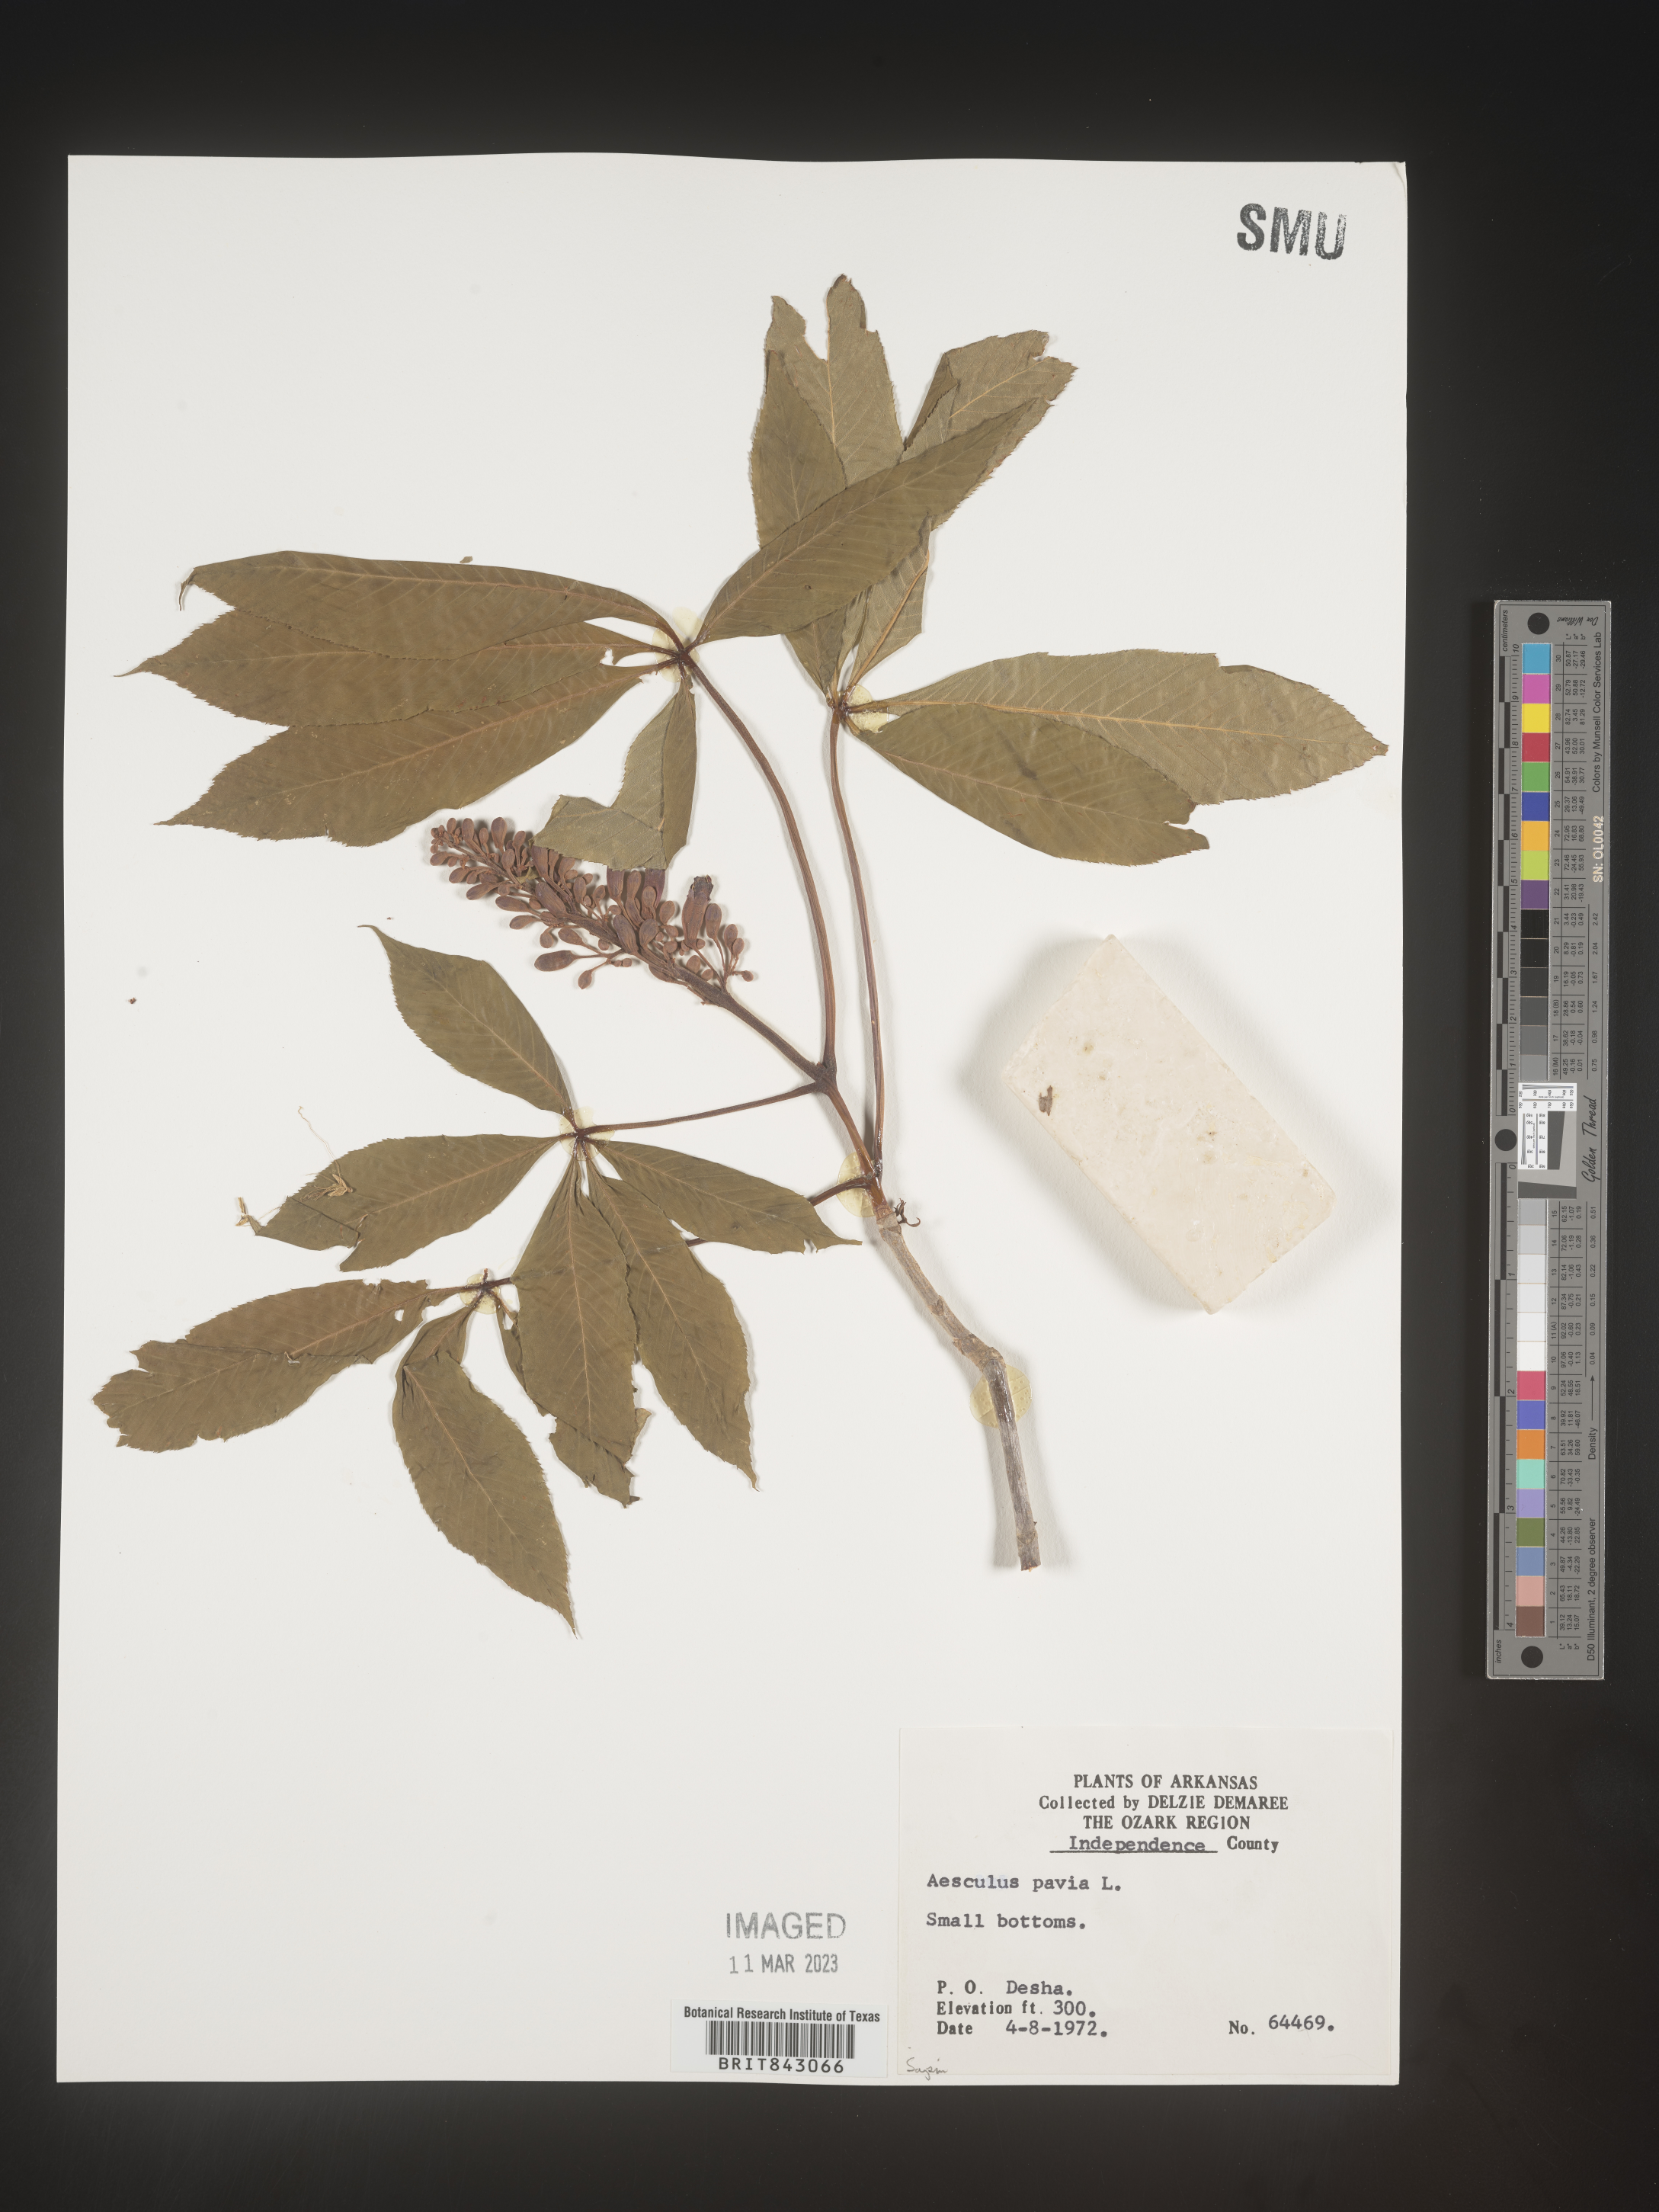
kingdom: Plantae
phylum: Tracheophyta
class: Magnoliopsida
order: Sapindales
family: Sapindaceae
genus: Aesculus
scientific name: Aesculus pavia
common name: Red buckeye
